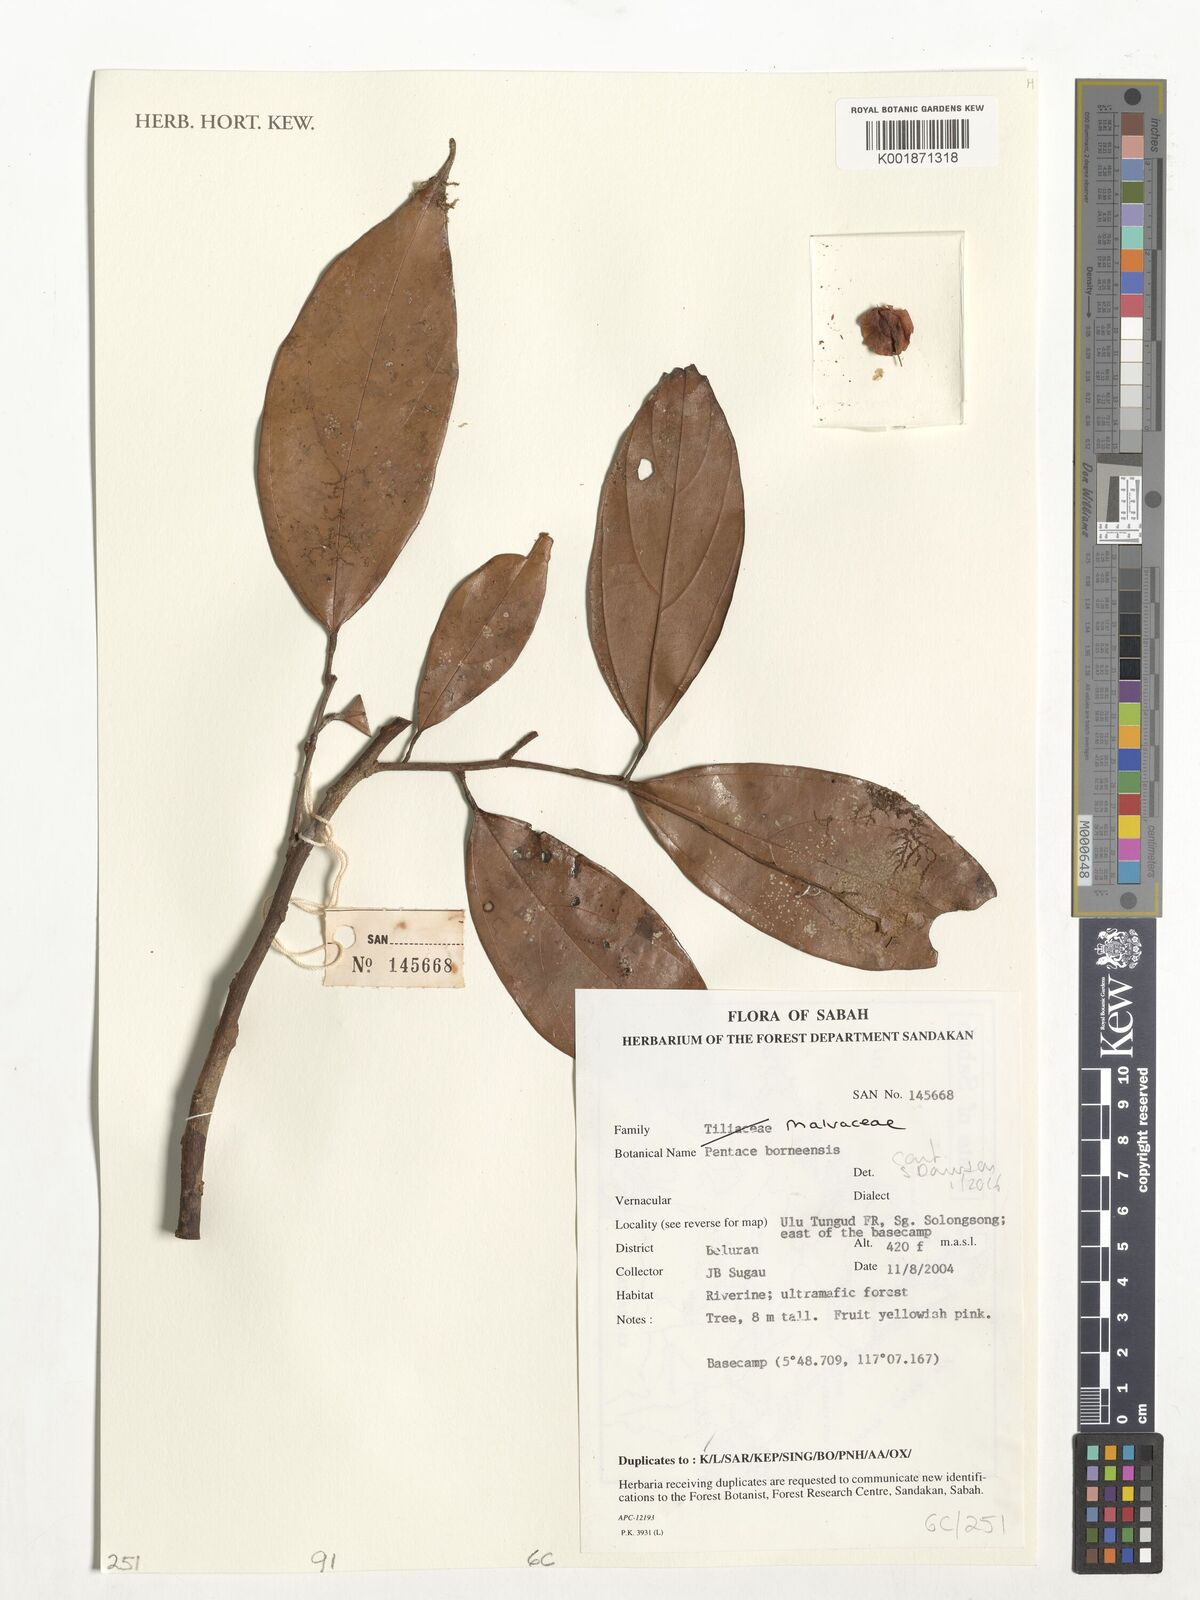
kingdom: Plantae
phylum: Tracheophyta
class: Magnoliopsida
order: Malvales
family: Malvaceae
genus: Pentace
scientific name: Pentace borneensis
